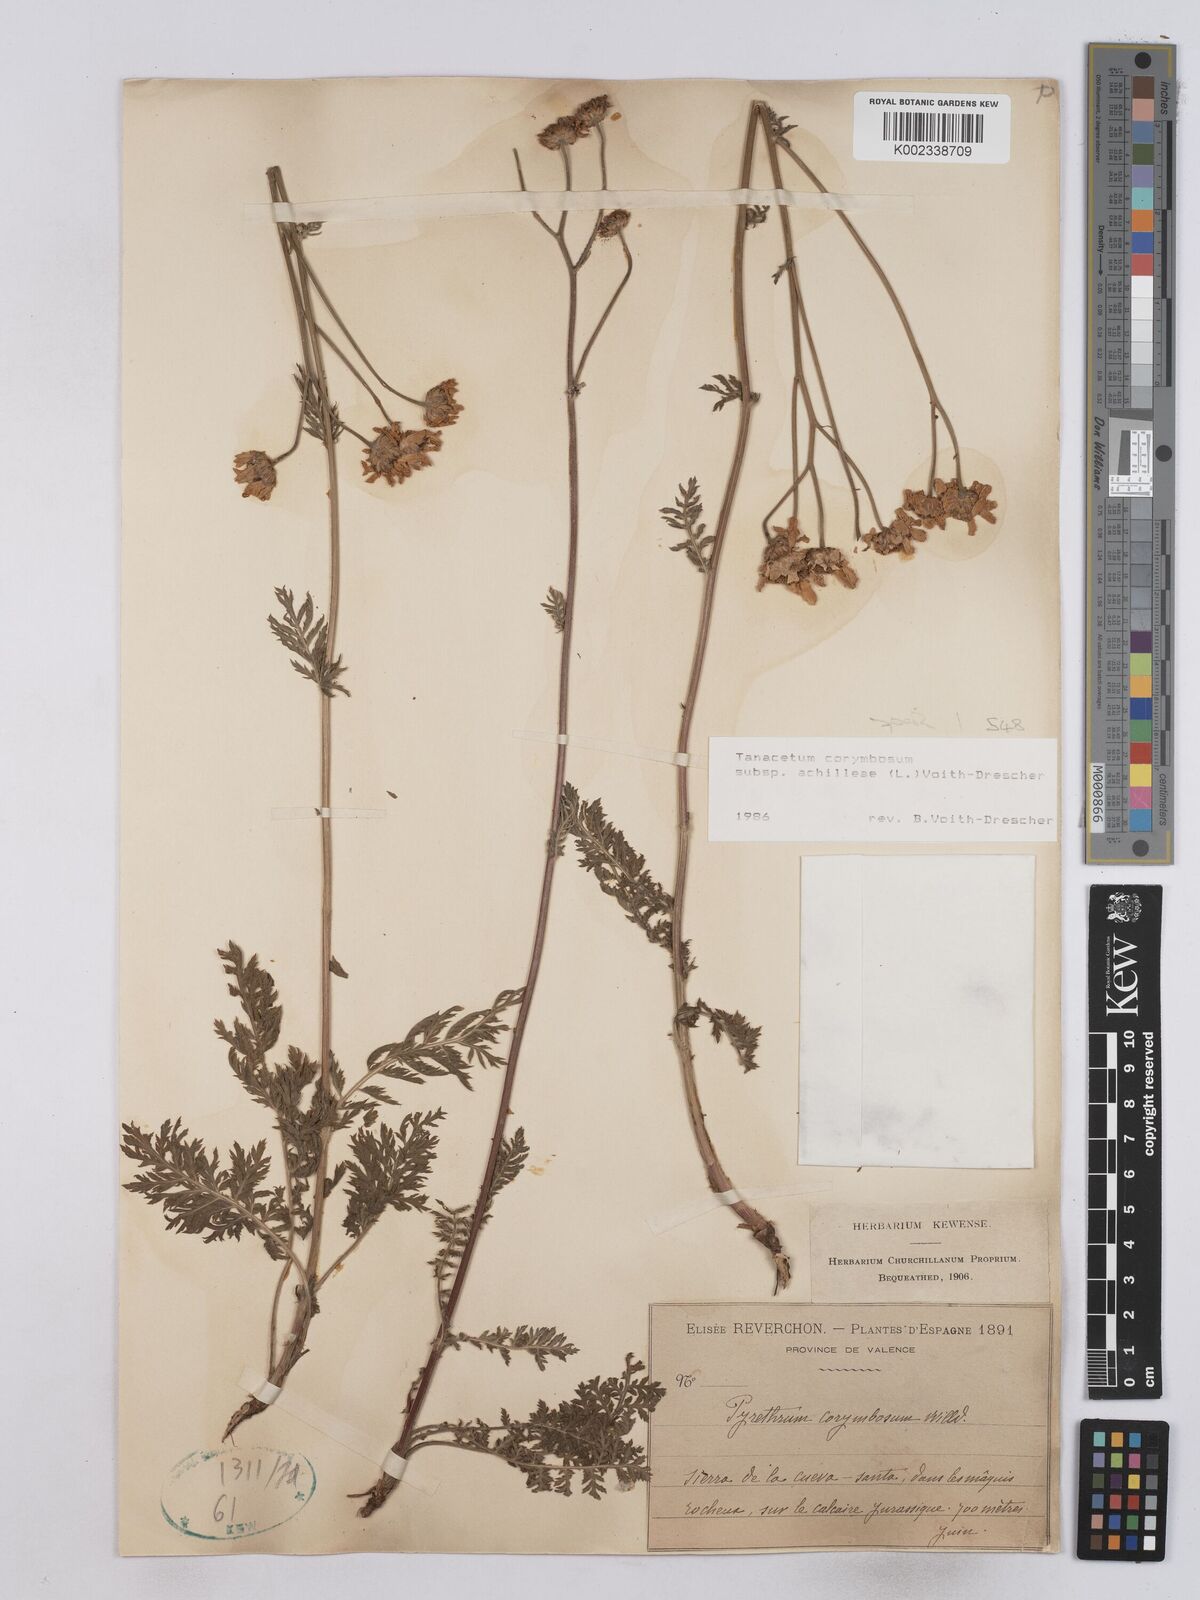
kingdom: Plantae
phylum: Tracheophyta
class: Magnoliopsida
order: Asterales
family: Asteraceae
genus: Tanacetum
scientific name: Tanacetum corymbosum
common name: Scentless feverfew
